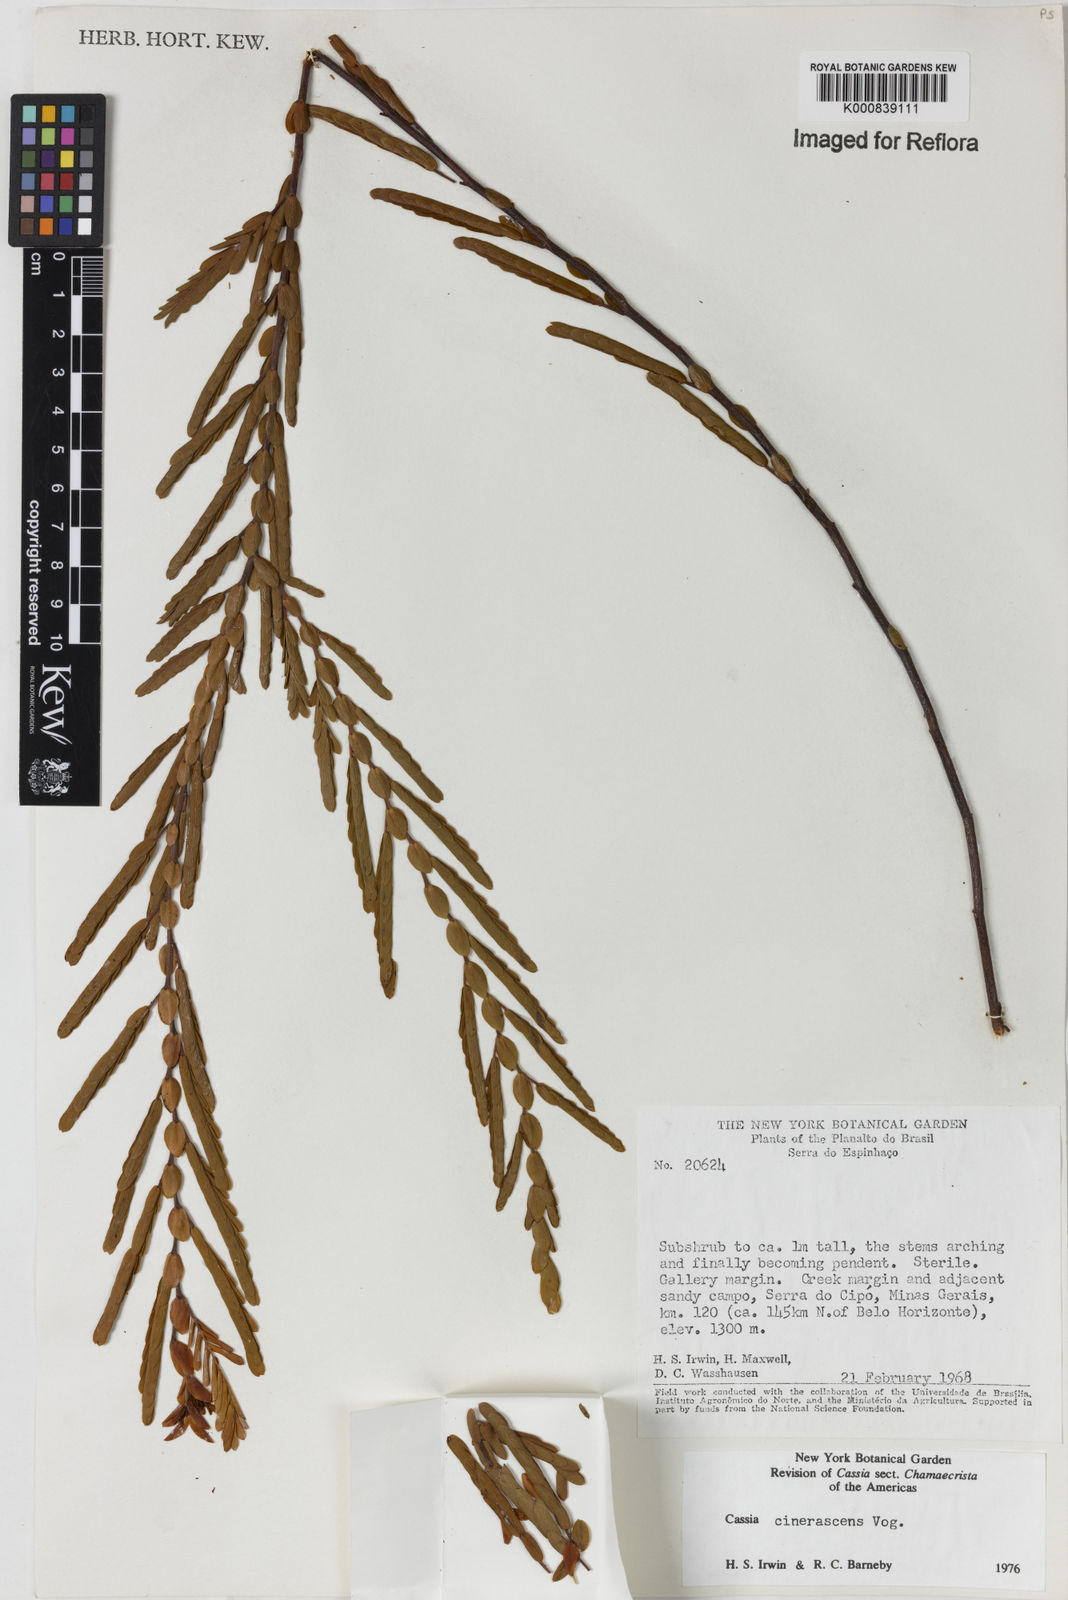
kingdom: Plantae
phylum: Tracheophyta
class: Magnoliopsida
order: Fabales
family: Fabaceae
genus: Chamaecrista
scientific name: Chamaecrista cinerascens
